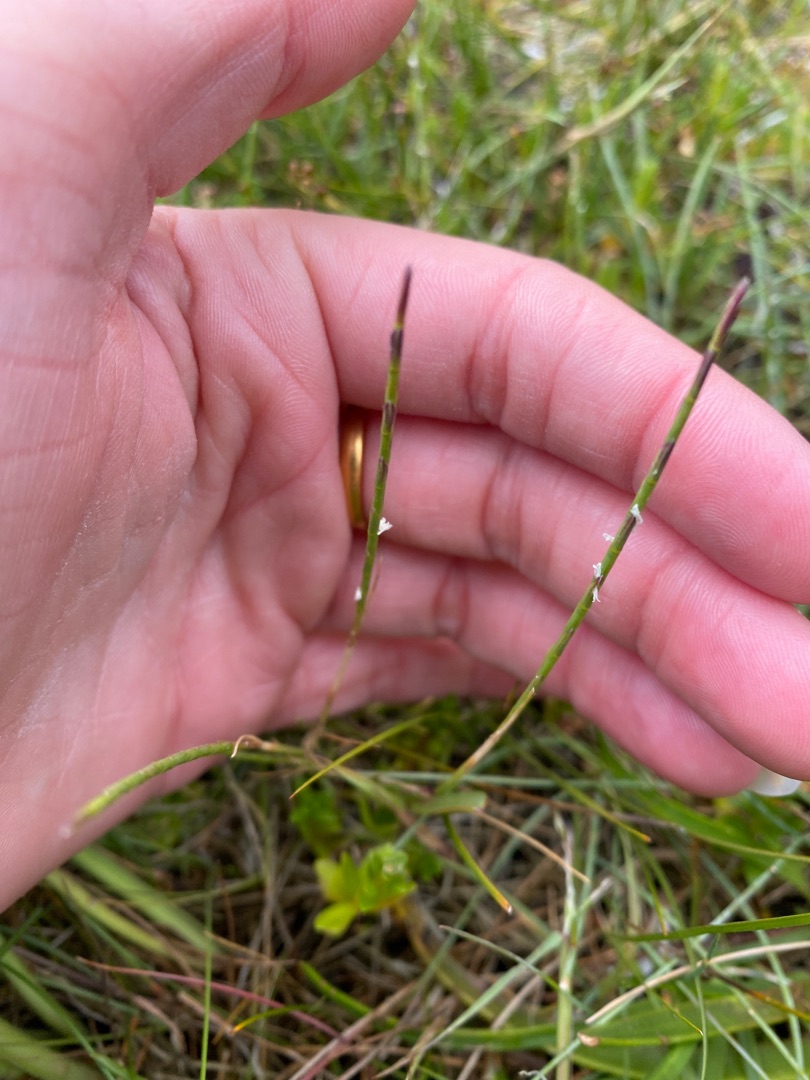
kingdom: Plantae
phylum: Tracheophyta
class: Liliopsida
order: Poales
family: Poaceae
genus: Parapholis
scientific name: Parapholis strigosa
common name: Spidshale
